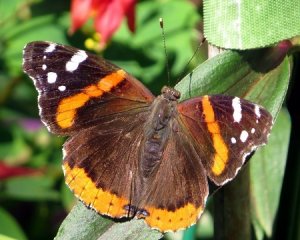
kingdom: Animalia
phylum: Arthropoda
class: Insecta
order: Lepidoptera
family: Nymphalidae
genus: Vanessa
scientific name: Vanessa atalanta
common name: Red Admiral
